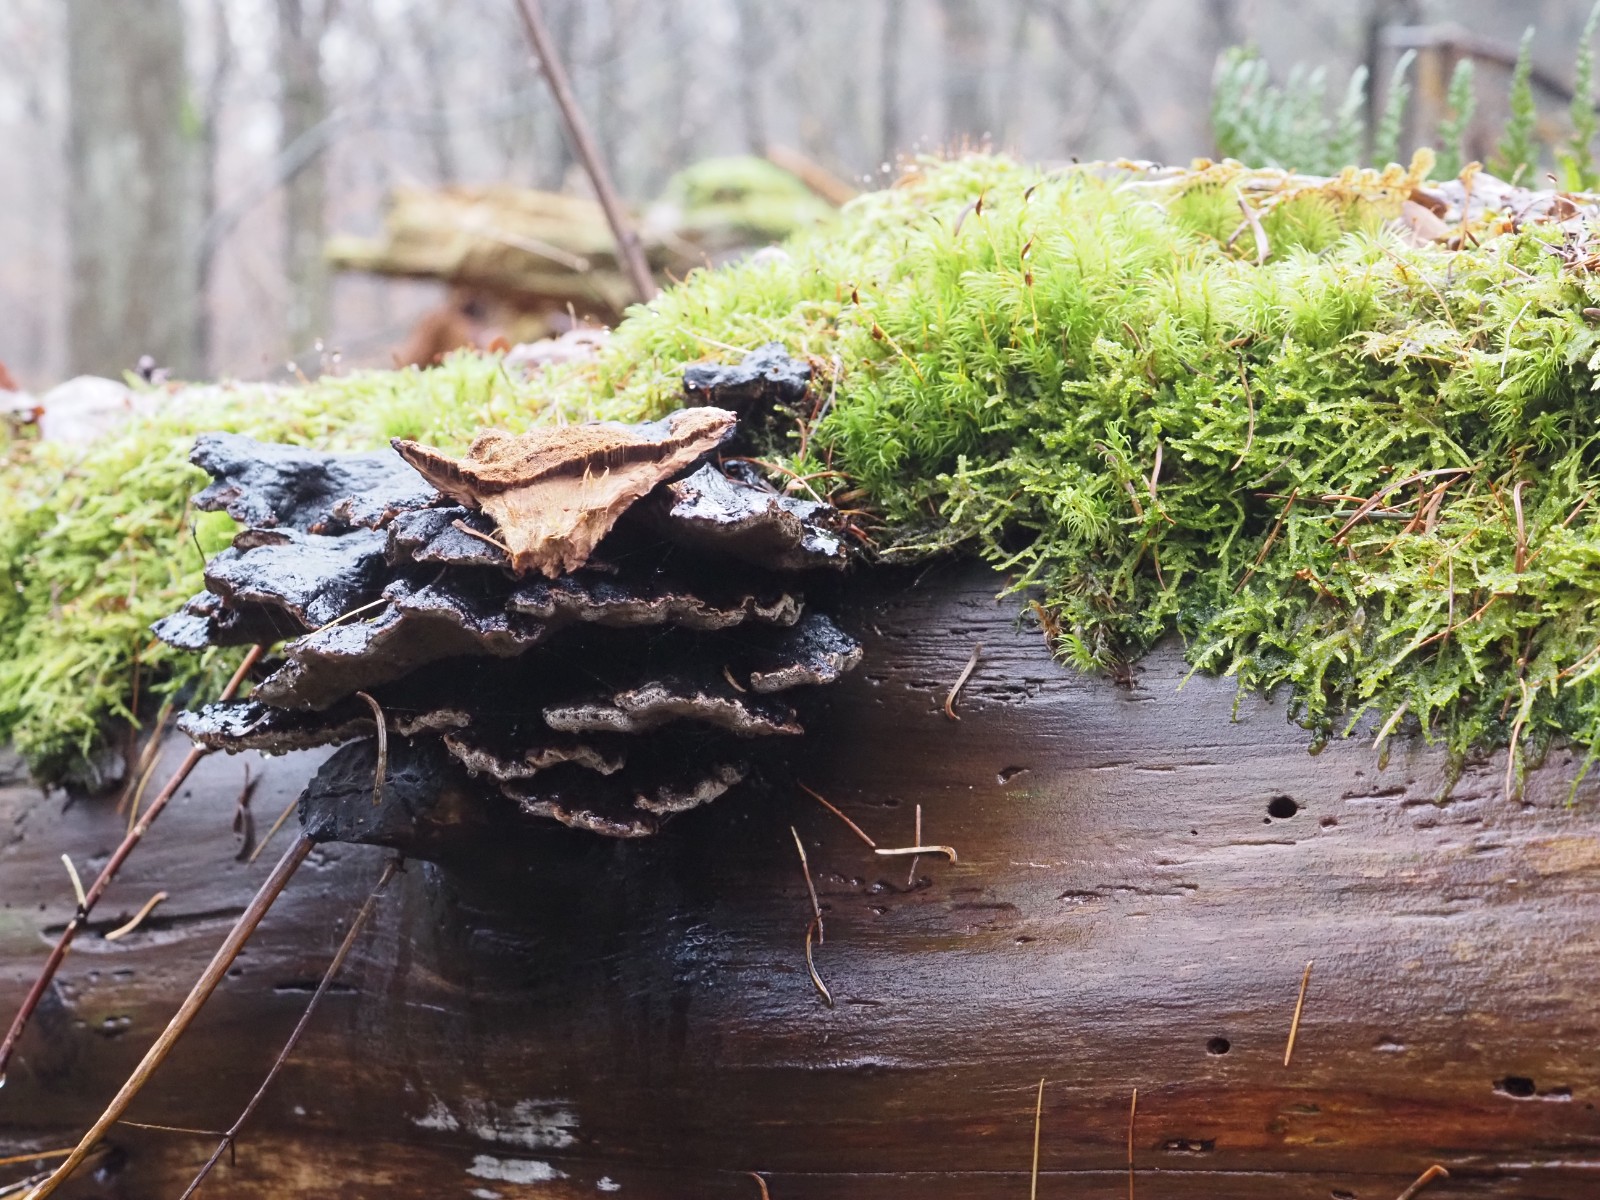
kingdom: Fungi
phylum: Basidiomycota
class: Agaricomycetes
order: Polyporales
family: Ischnodermataceae
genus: Ischnoderma
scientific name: Ischnoderma benzoinum
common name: gran-tjæreporesvamp
